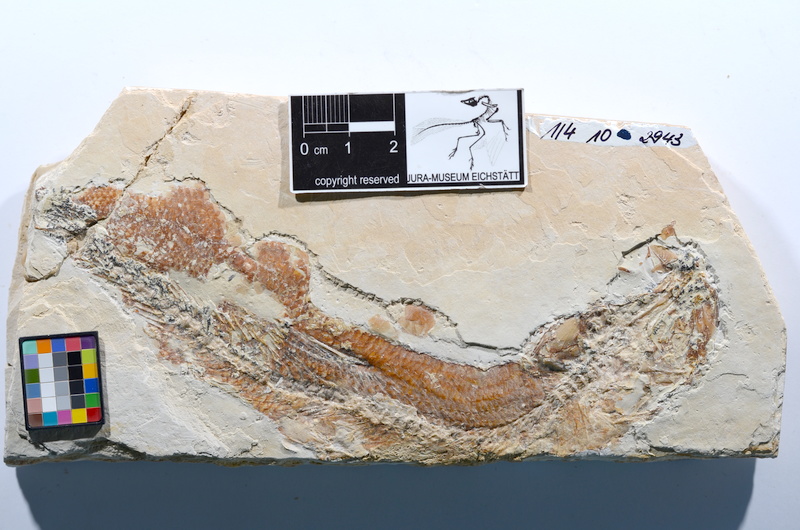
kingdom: Animalia
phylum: Chordata
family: Ascalaboidae
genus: Tharsis
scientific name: Tharsis dubius
